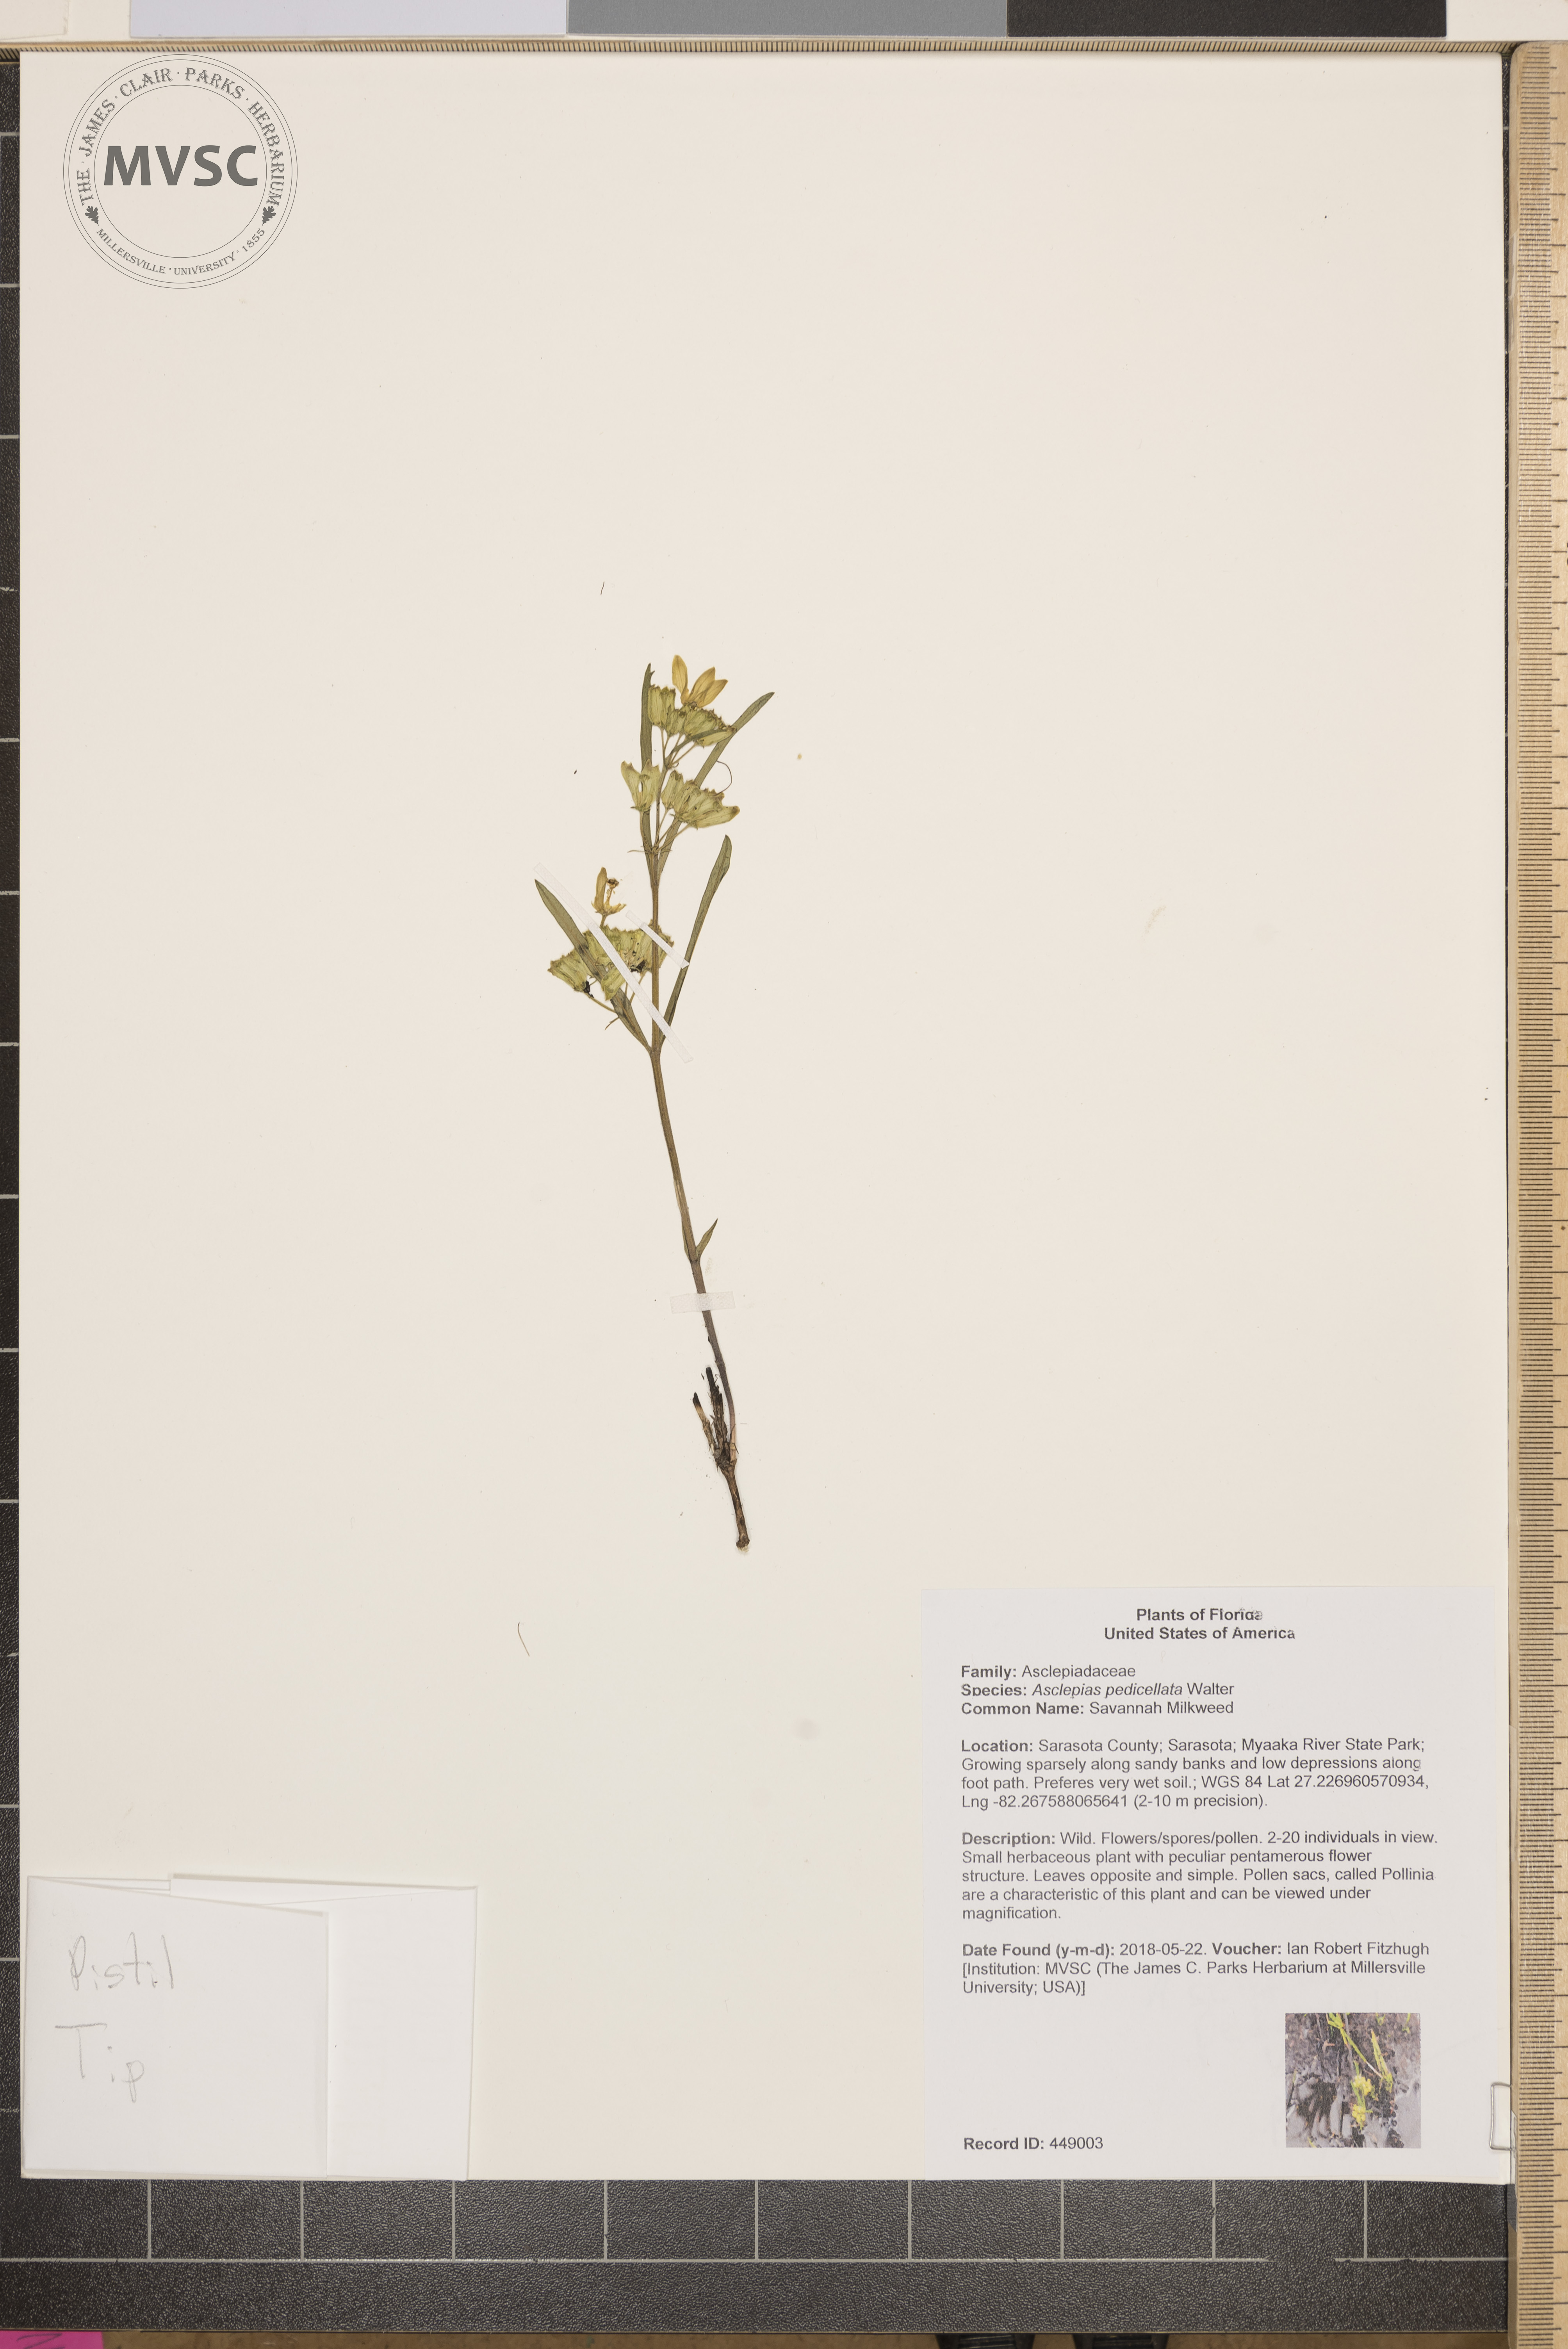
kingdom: Plantae
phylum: Tracheophyta
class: Magnoliopsida
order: Gentianales
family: Apocynaceae
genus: Asclepias
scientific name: Asclepias pedicellata
